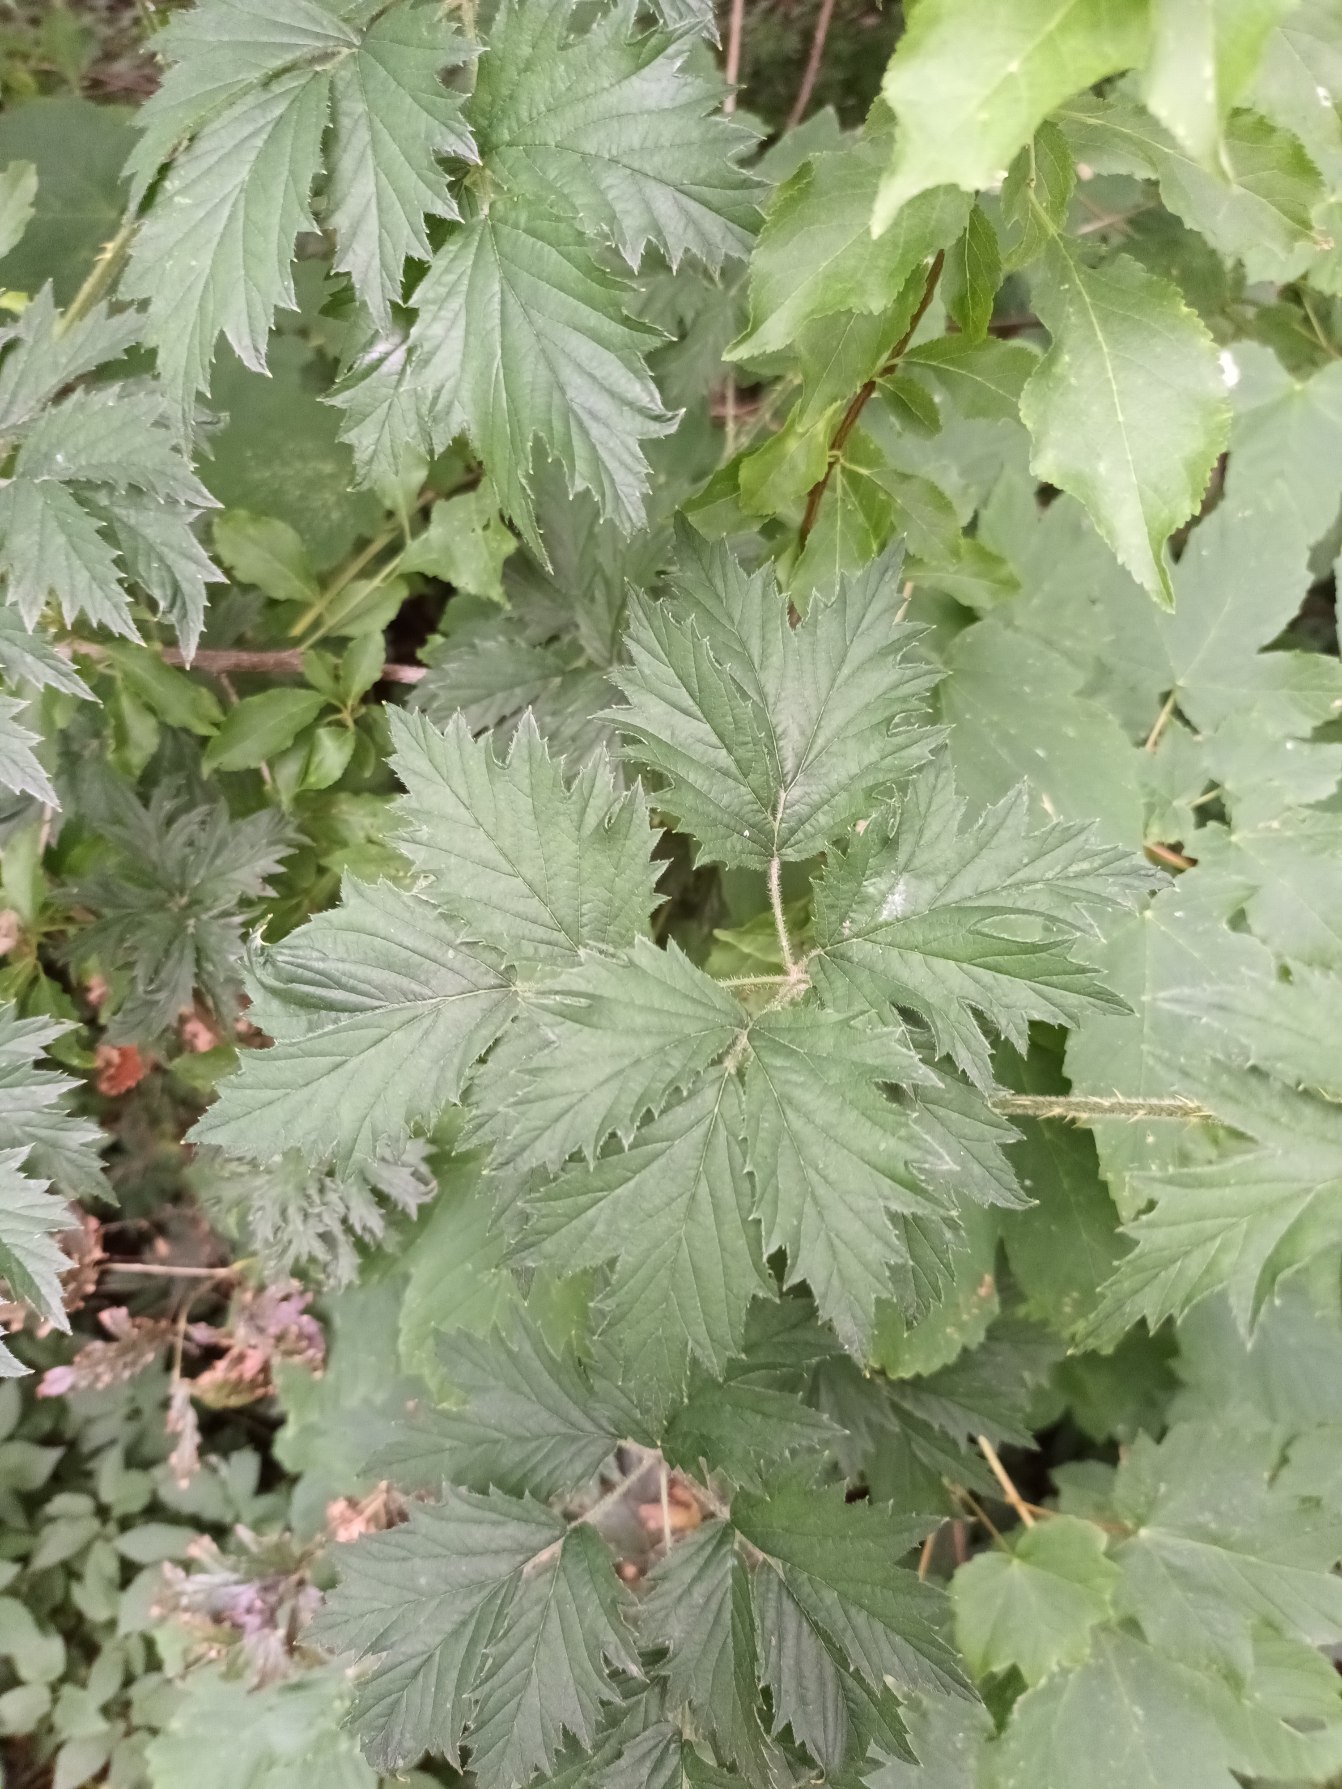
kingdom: Plantae
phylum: Tracheophyta
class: Magnoliopsida
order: Rosales
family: Rosaceae
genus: Rubus
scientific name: Rubus laciniatus
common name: Fliget brombær
